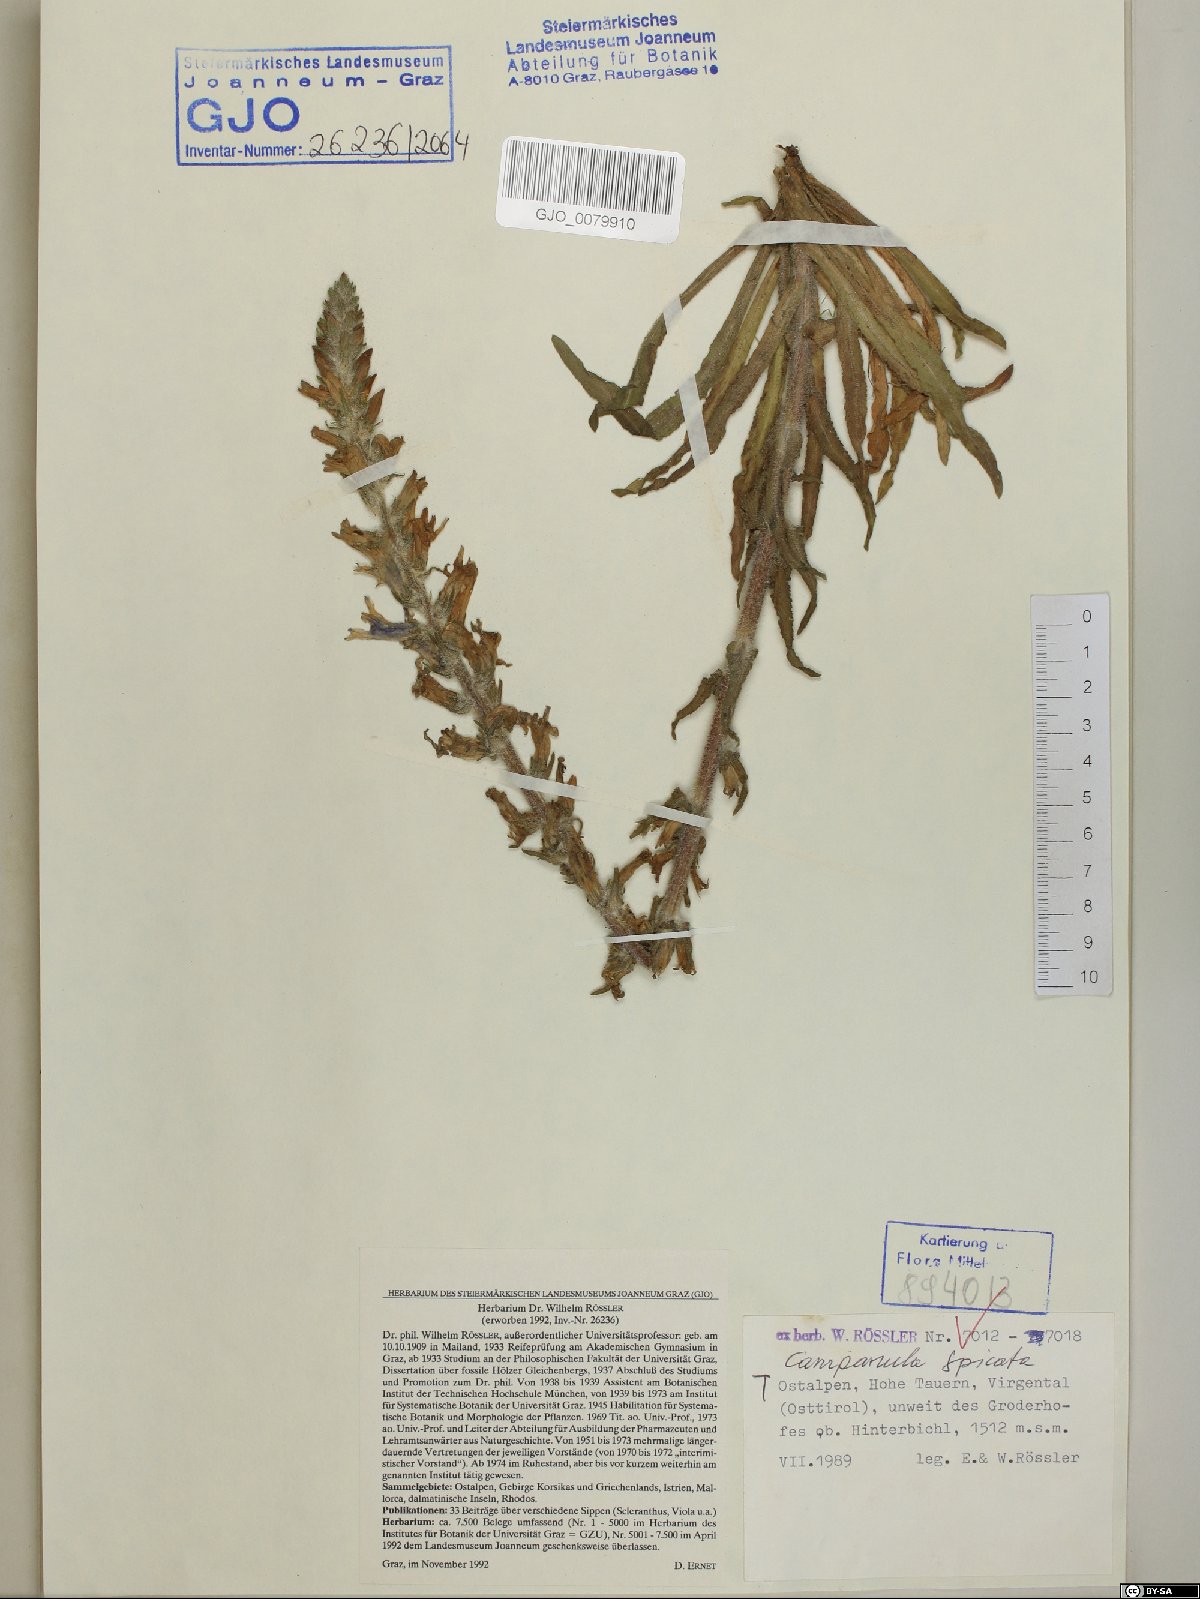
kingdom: Plantae
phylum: Tracheophyta
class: Magnoliopsida
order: Asterales
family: Campanulaceae
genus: Campanula
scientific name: Campanula spicata
